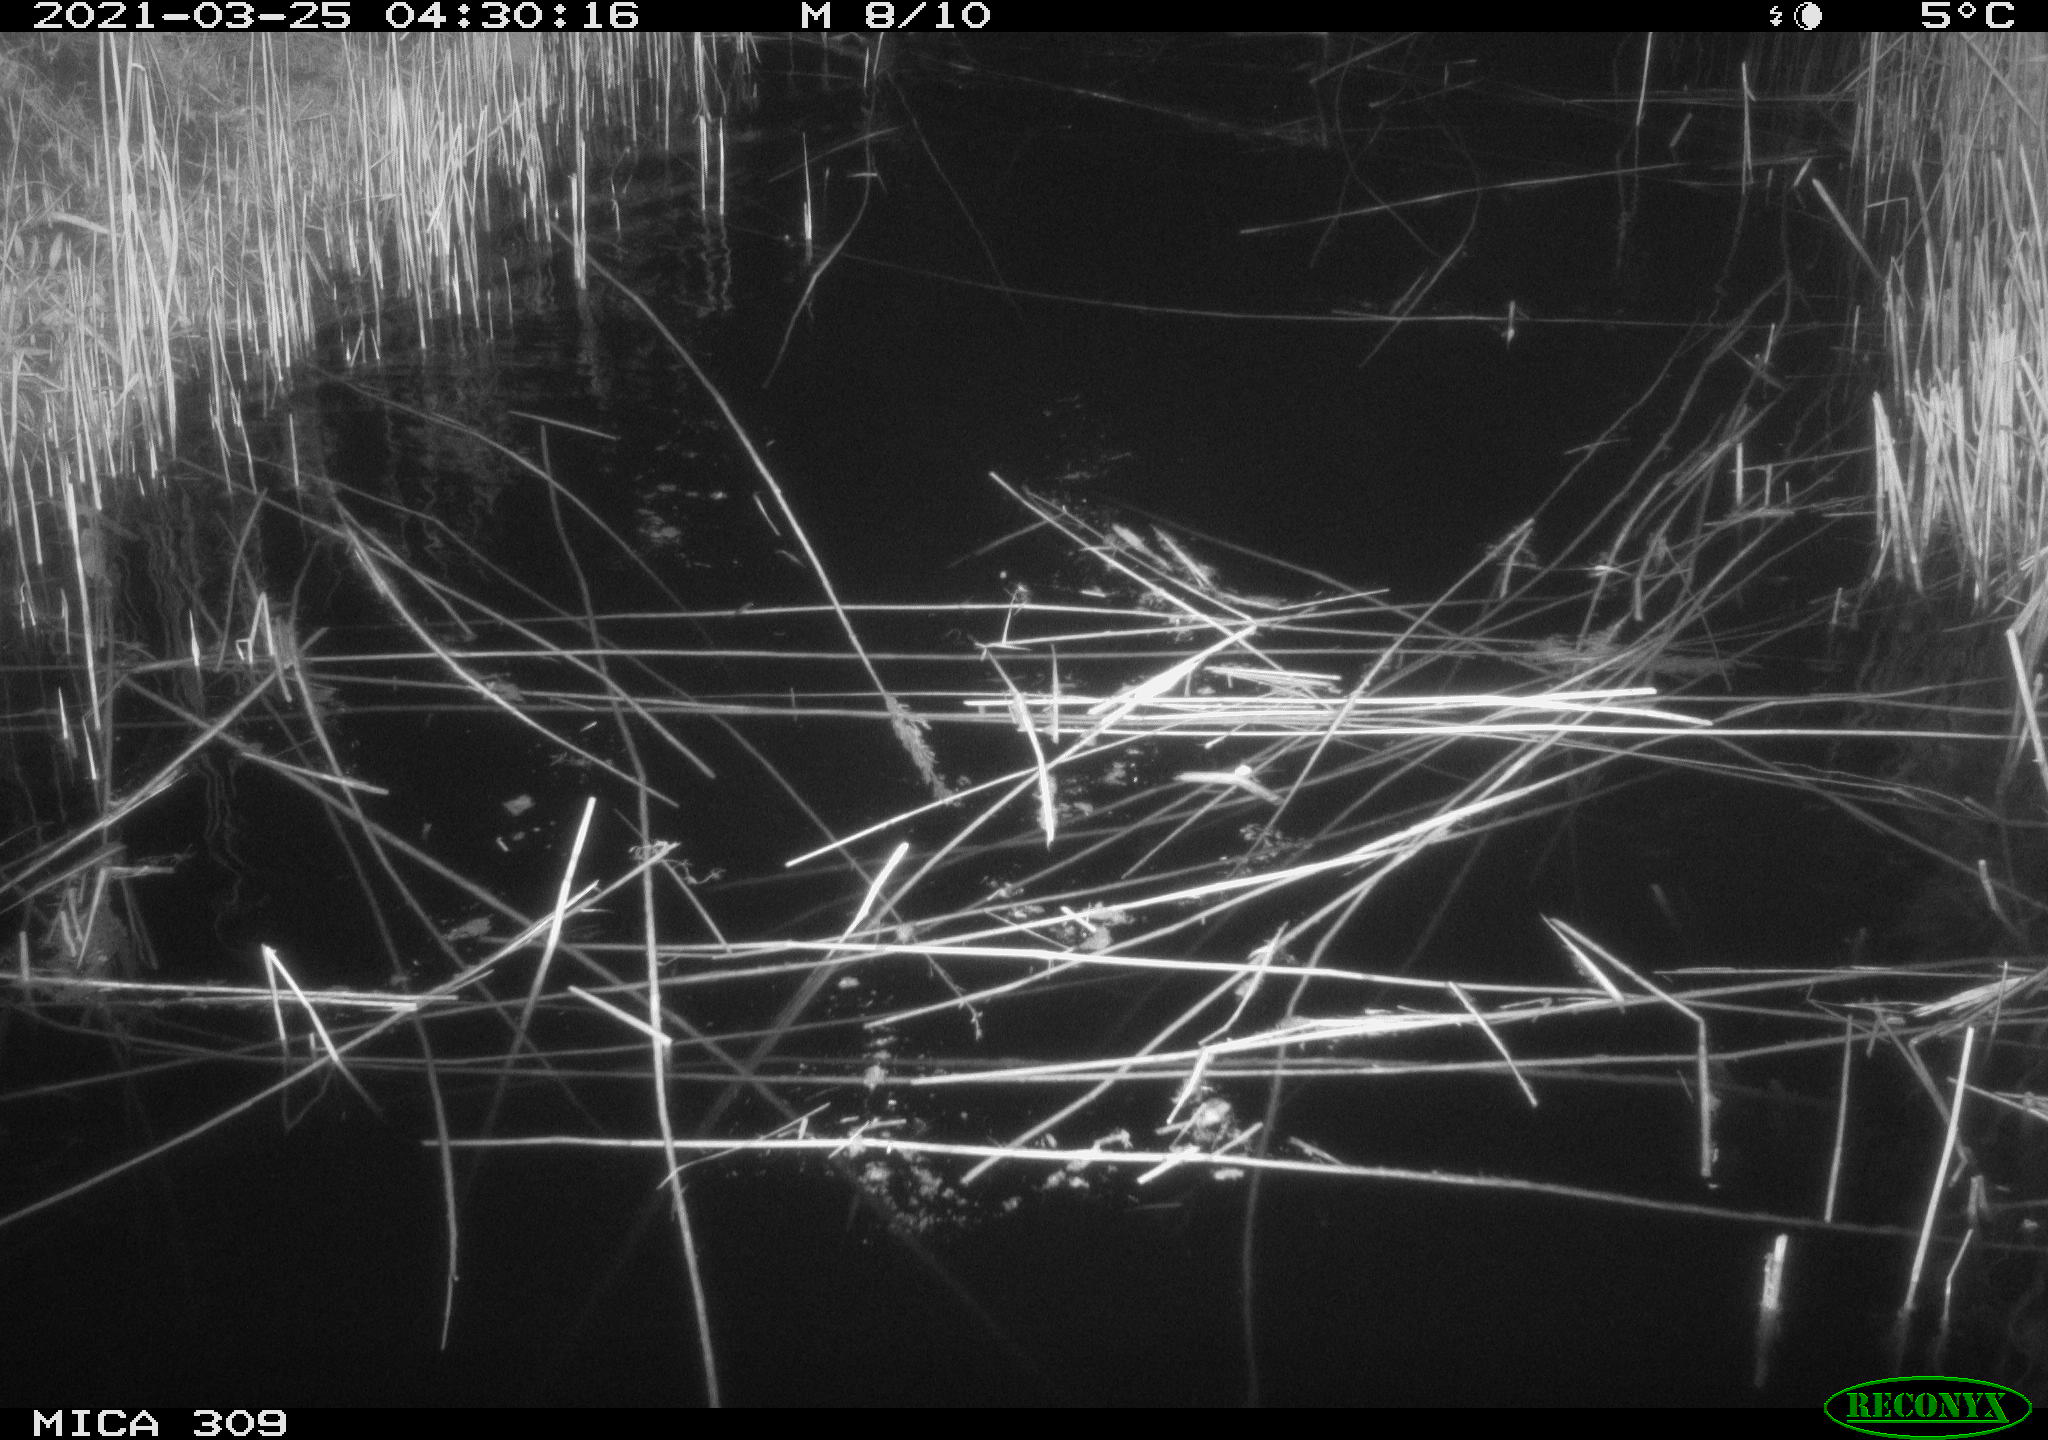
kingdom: Animalia
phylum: Chordata
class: Aves
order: Anseriformes
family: Anatidae
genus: Anas
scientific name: Anas platyrhynchos
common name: Mallard
